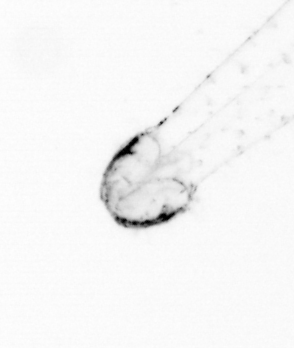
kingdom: Animalia
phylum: Chaetognatha
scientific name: Chaetognatha
